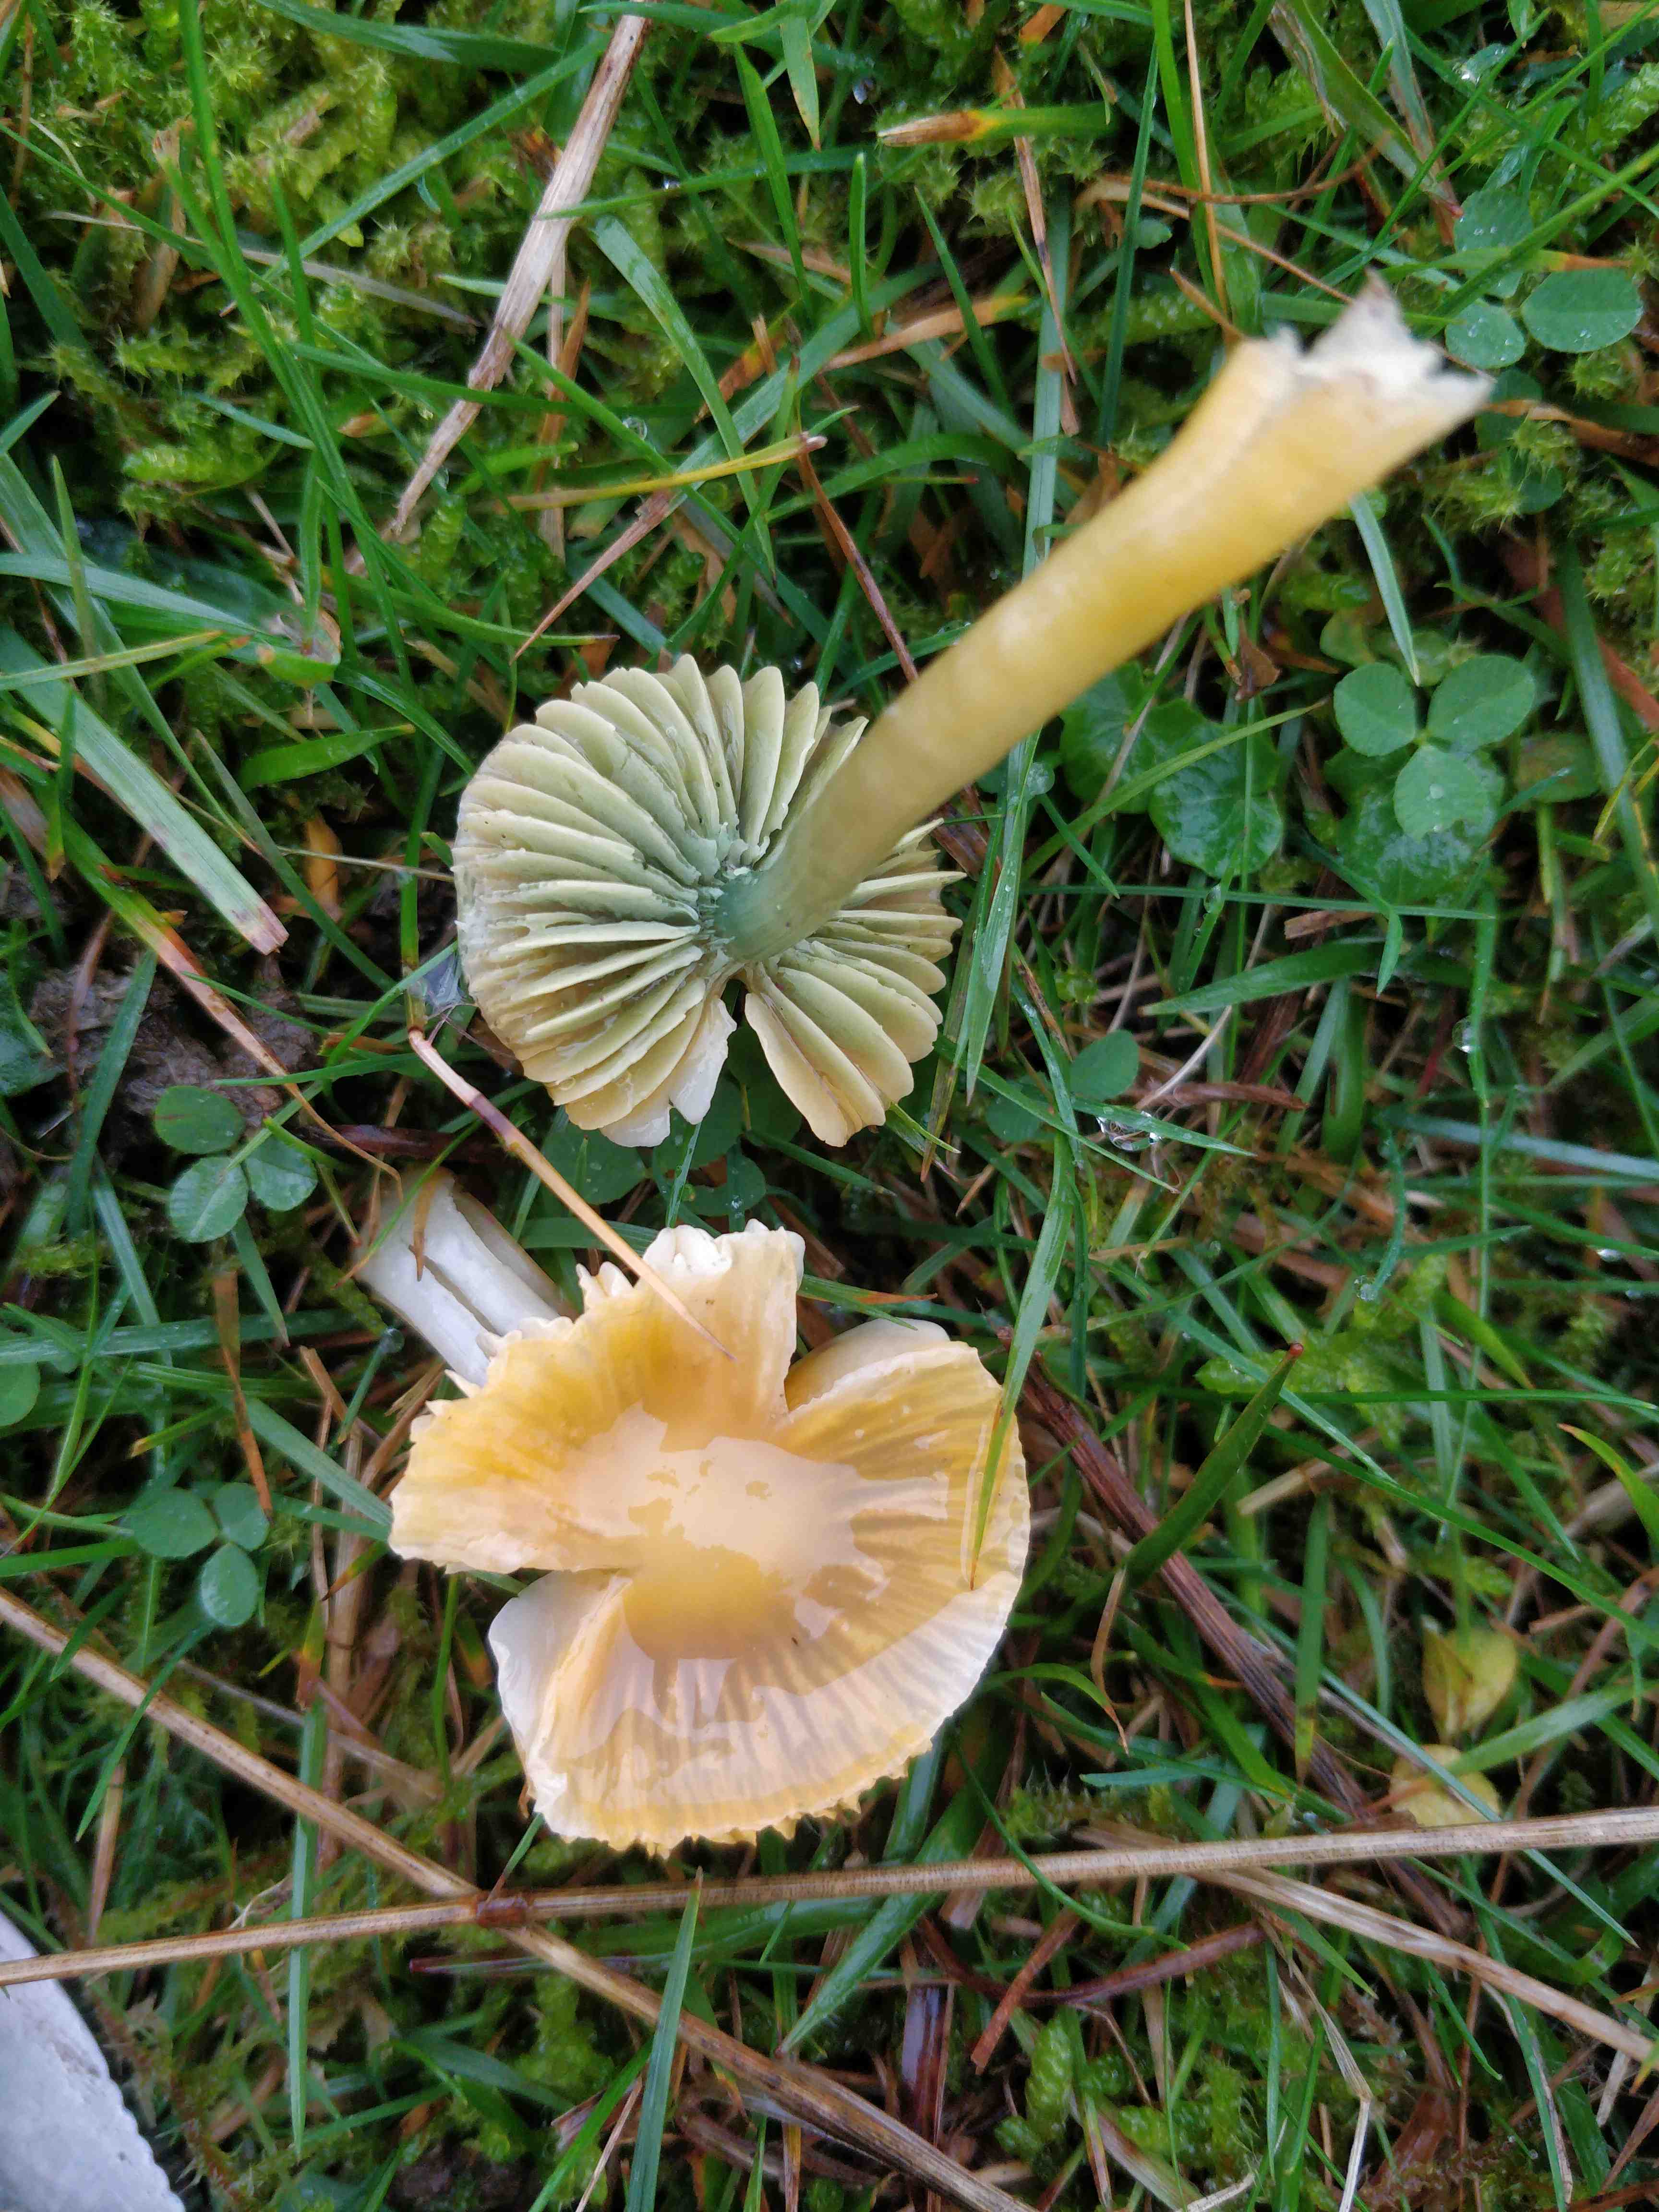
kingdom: Fungi
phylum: Basidiomycota
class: Agaricomycetes
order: Agaricales
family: Hygrophoraceae
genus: Gliophorus
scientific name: Gliophorus psittacinus
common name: papegøje-vokshat
